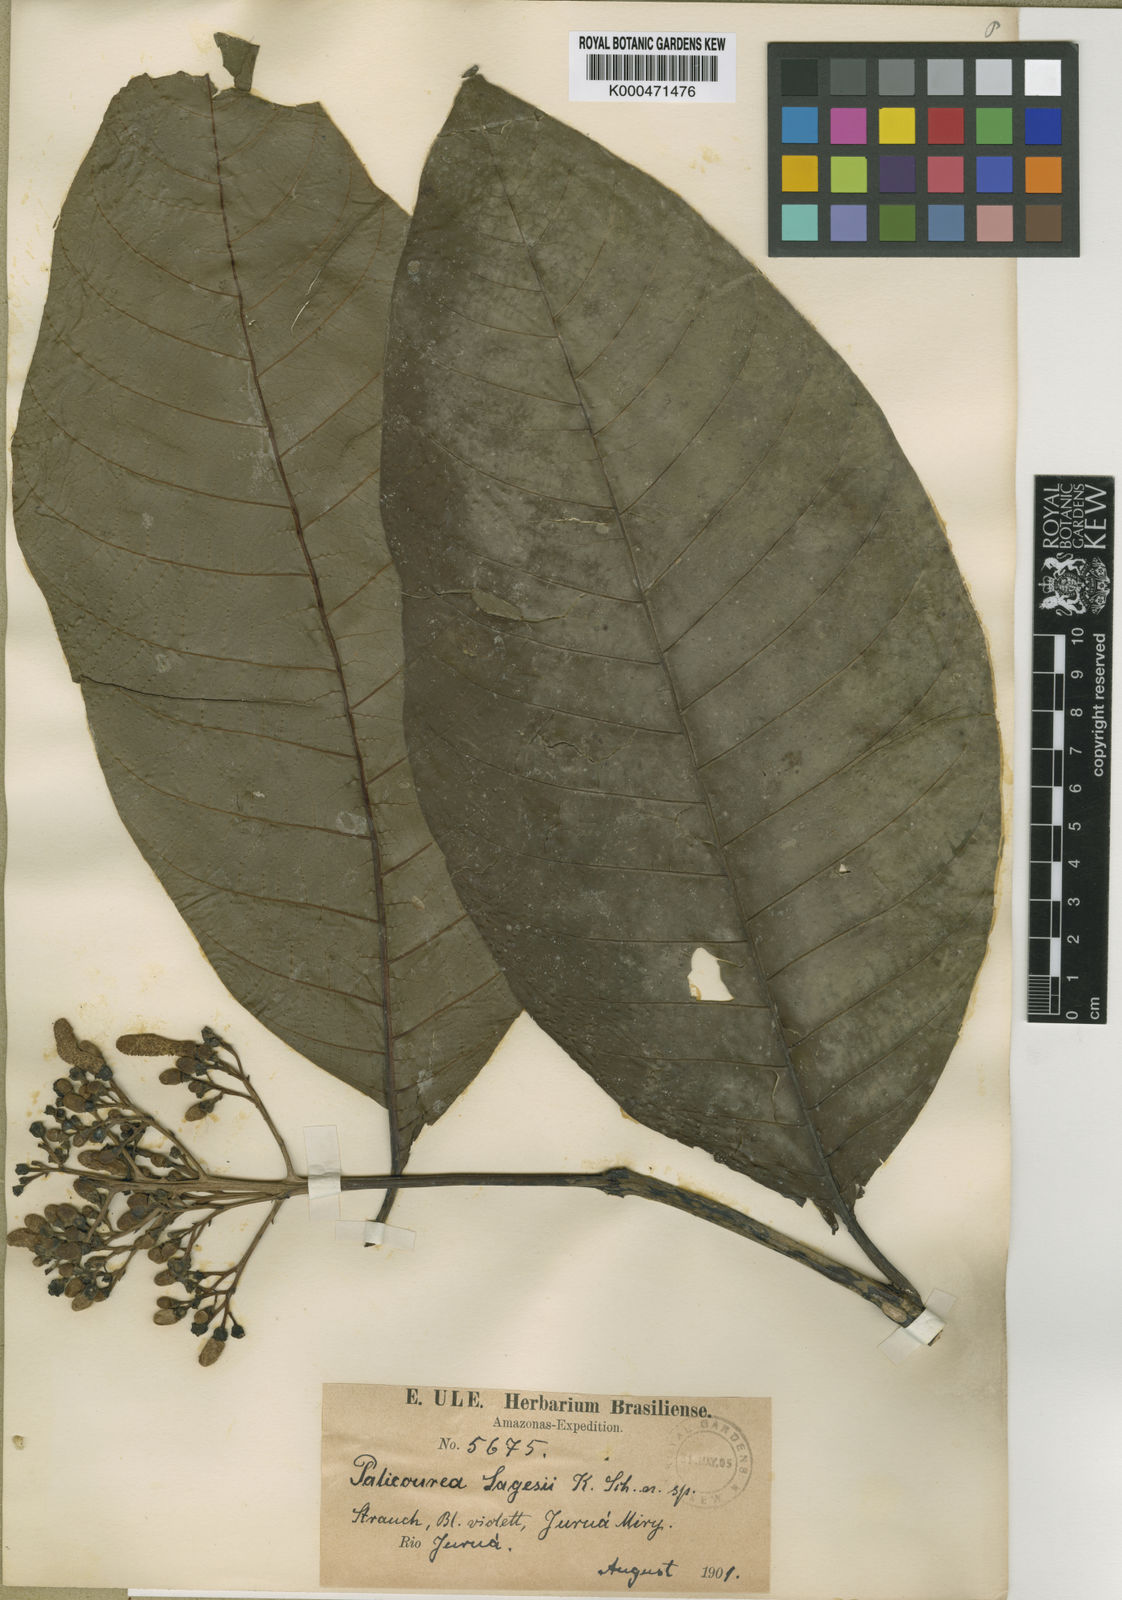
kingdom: Plantae
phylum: Tracheophyta
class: Magnoliopsida
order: Gentianales
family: Rubiaceae
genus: Palicourea
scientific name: Palicourea lasiantha
